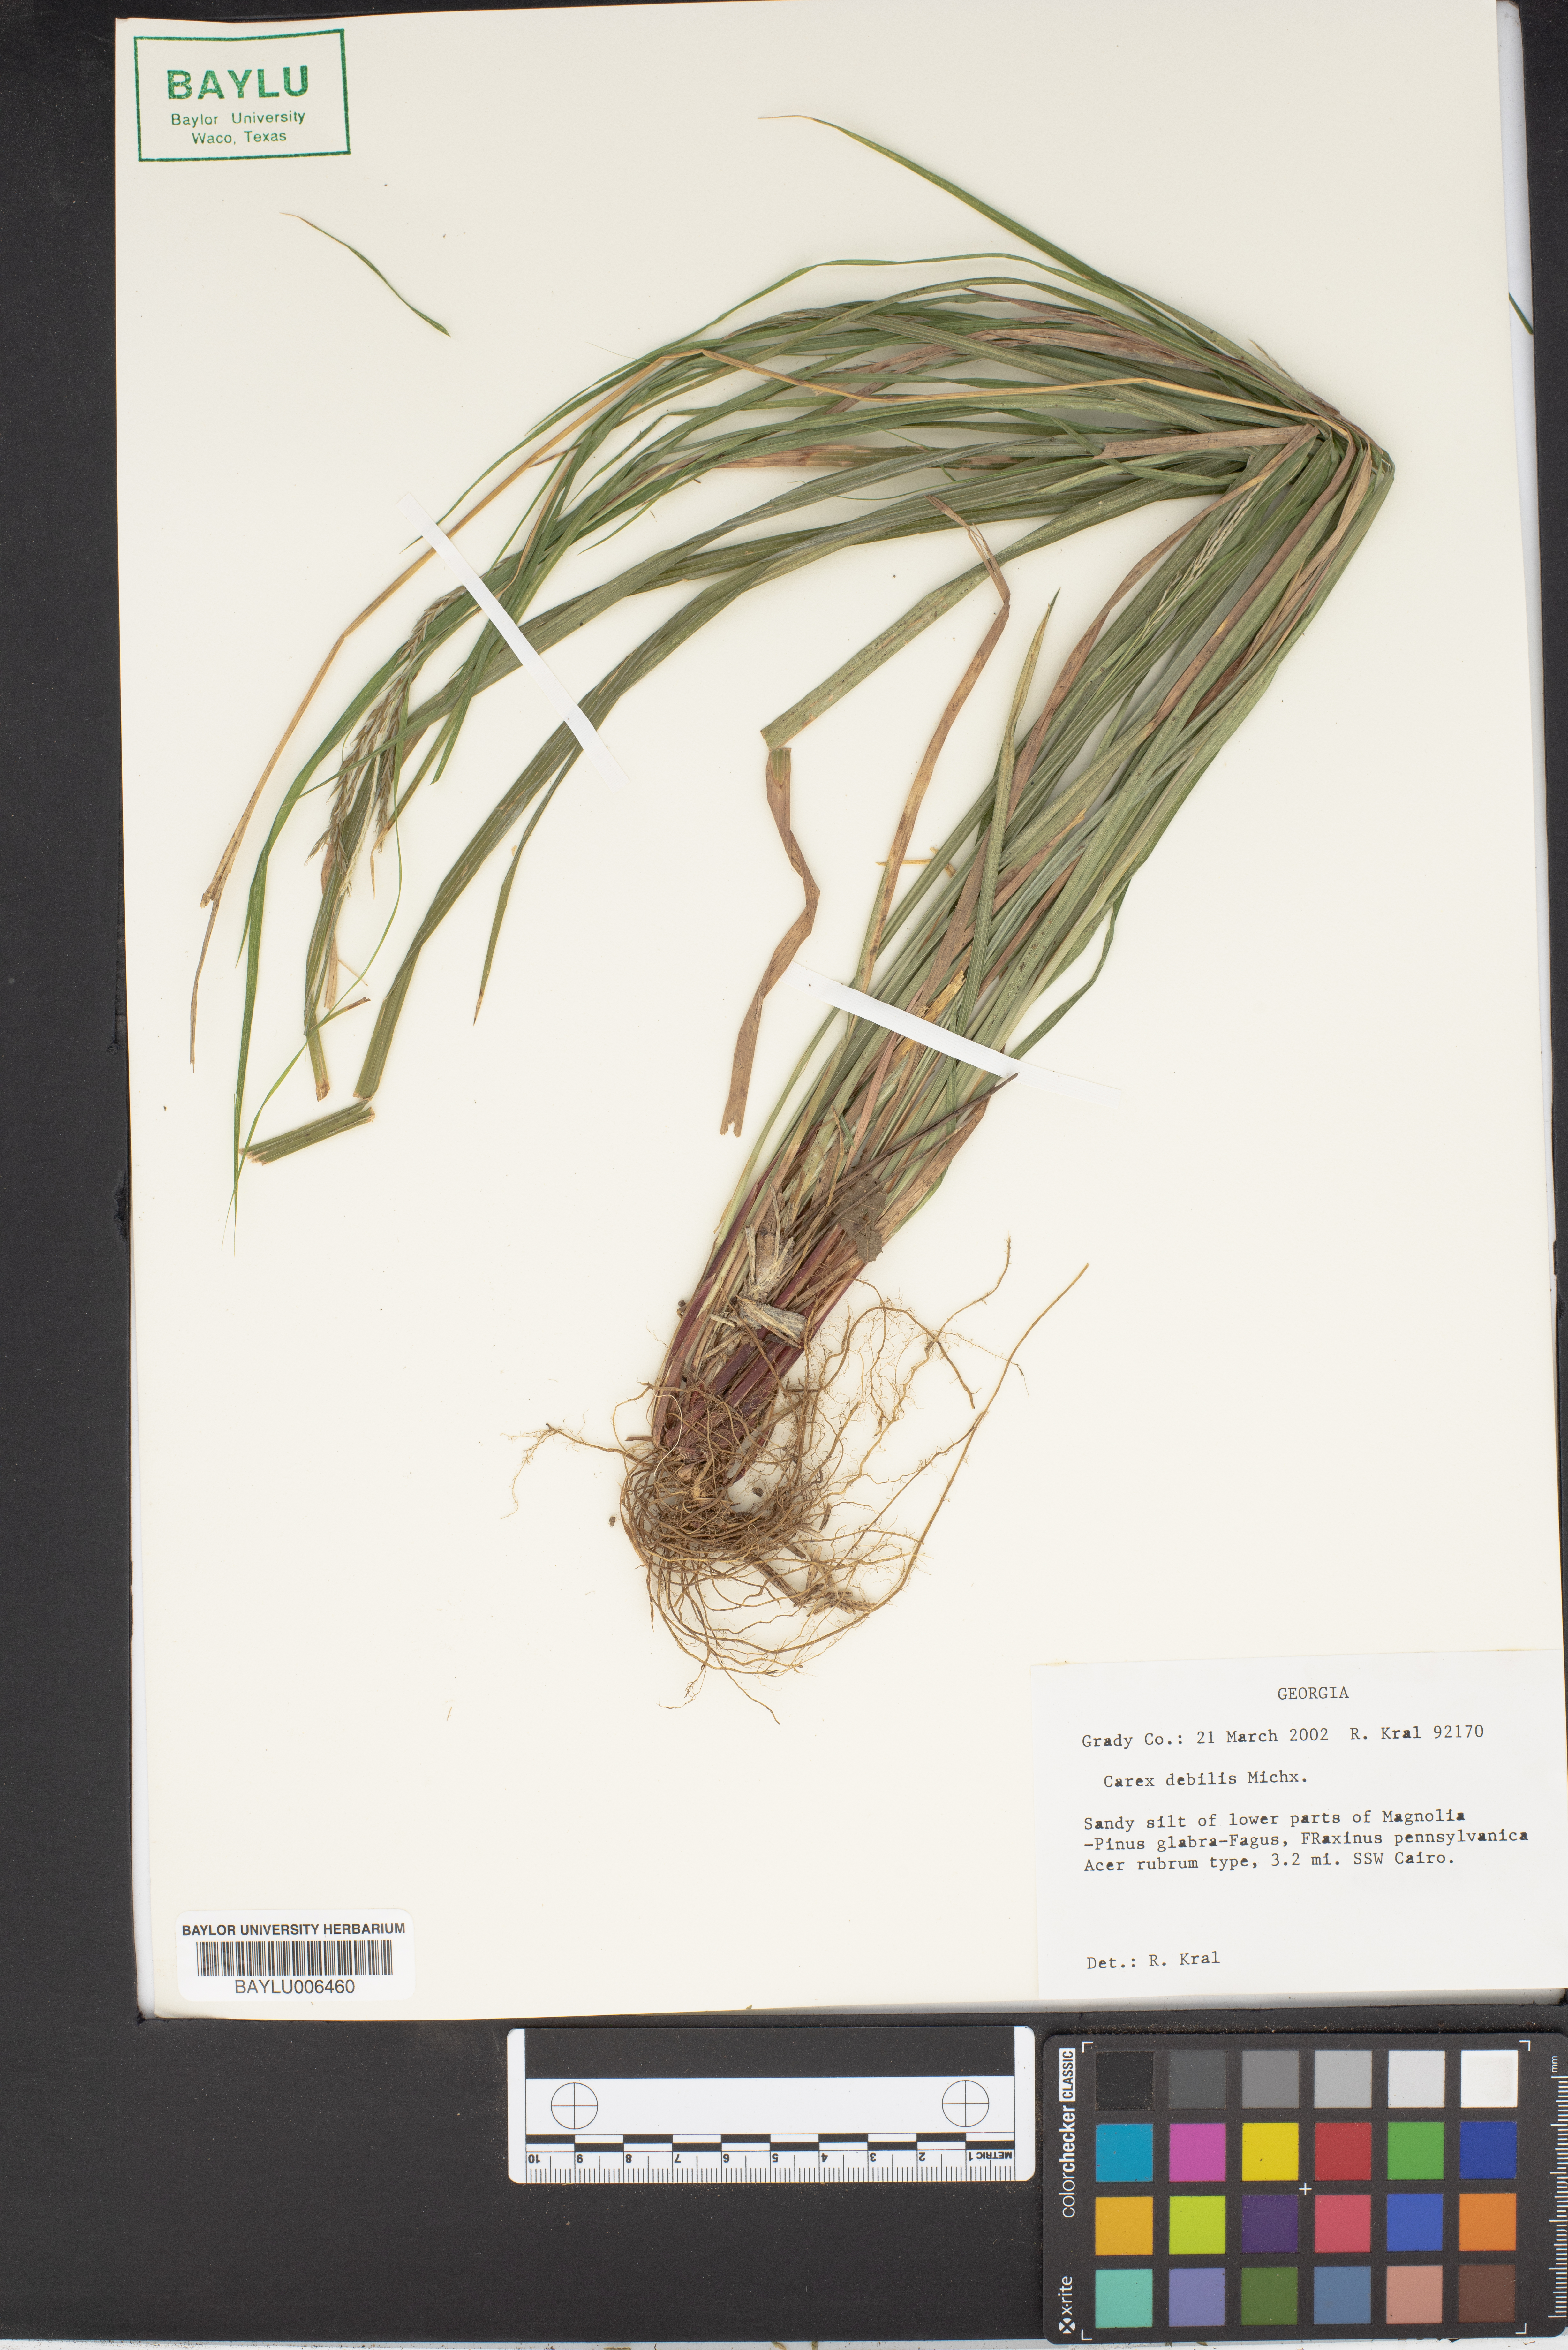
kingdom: Plantae
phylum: Tracheophyta
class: Liliopsida
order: Poales
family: Cyperaceae
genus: Carex
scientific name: Carex debilis
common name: White-edge sedge
